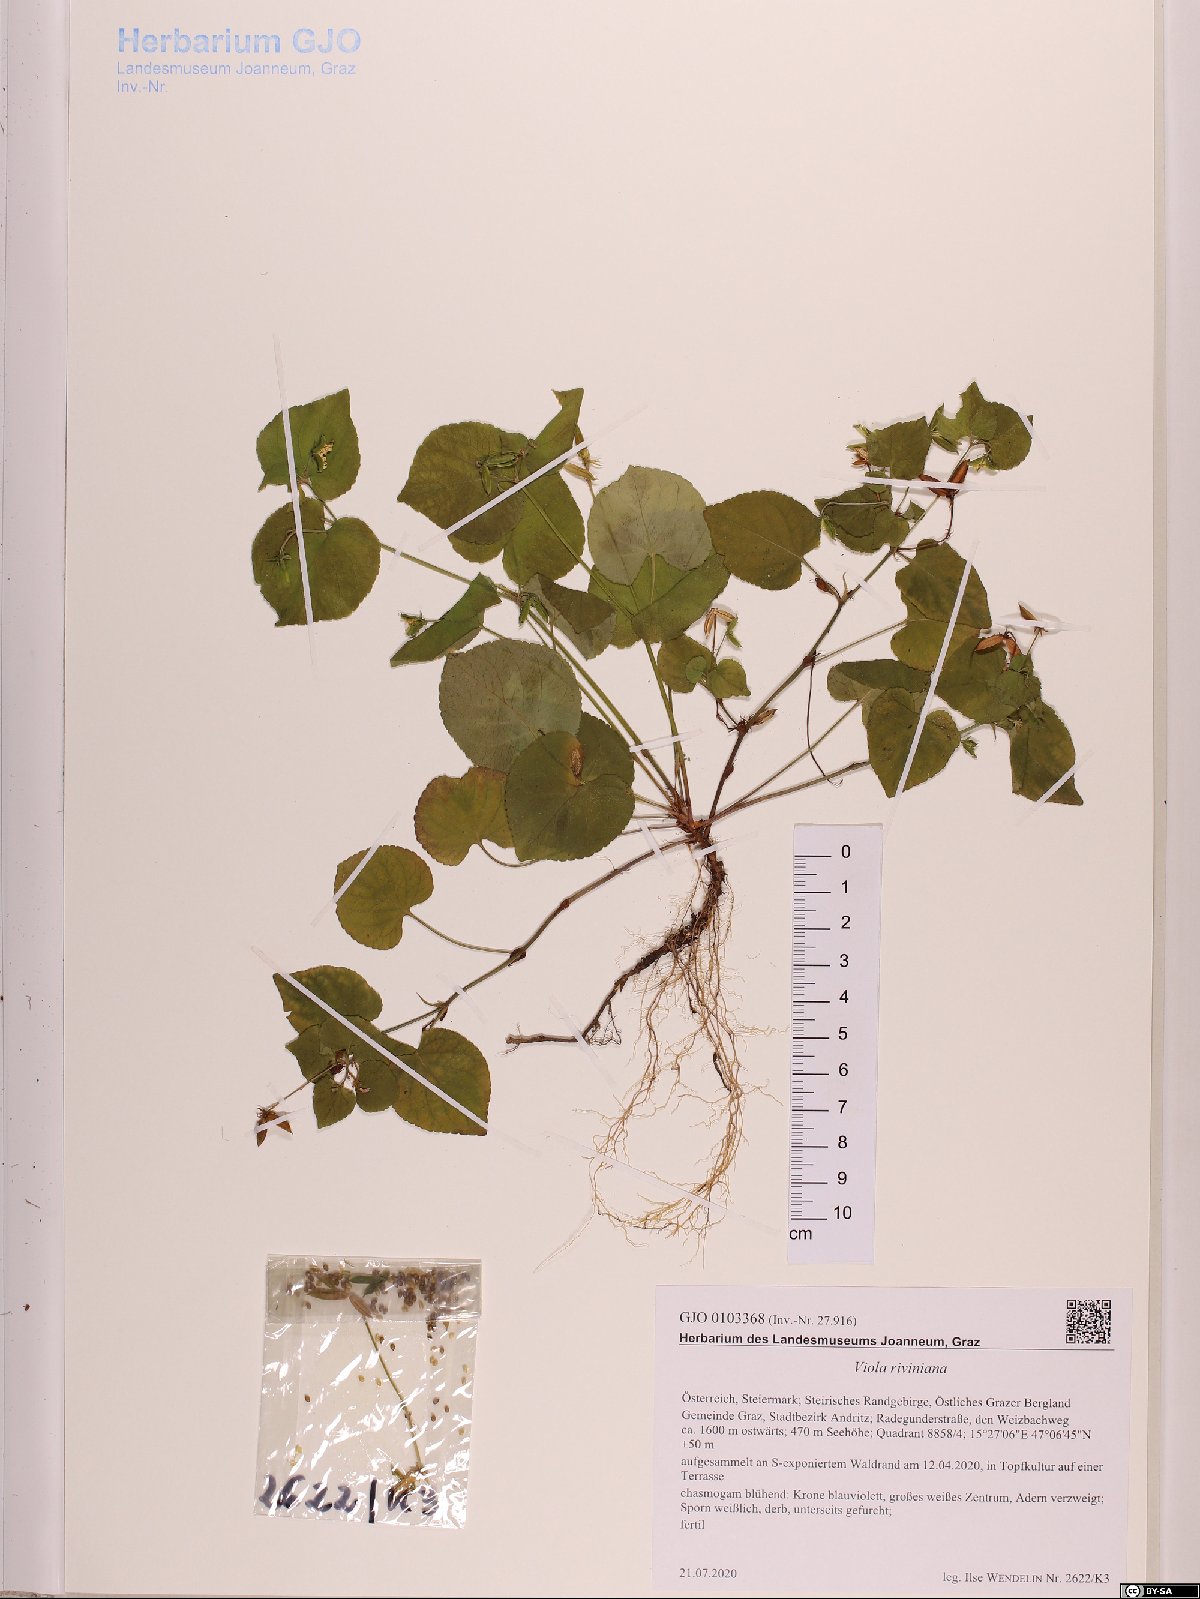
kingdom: Plantae
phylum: Tracheophyta
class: Magnoliopsida
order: Malpighiales
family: Violaceae
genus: Viola
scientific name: Viola riviniana
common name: Common dog-violet
